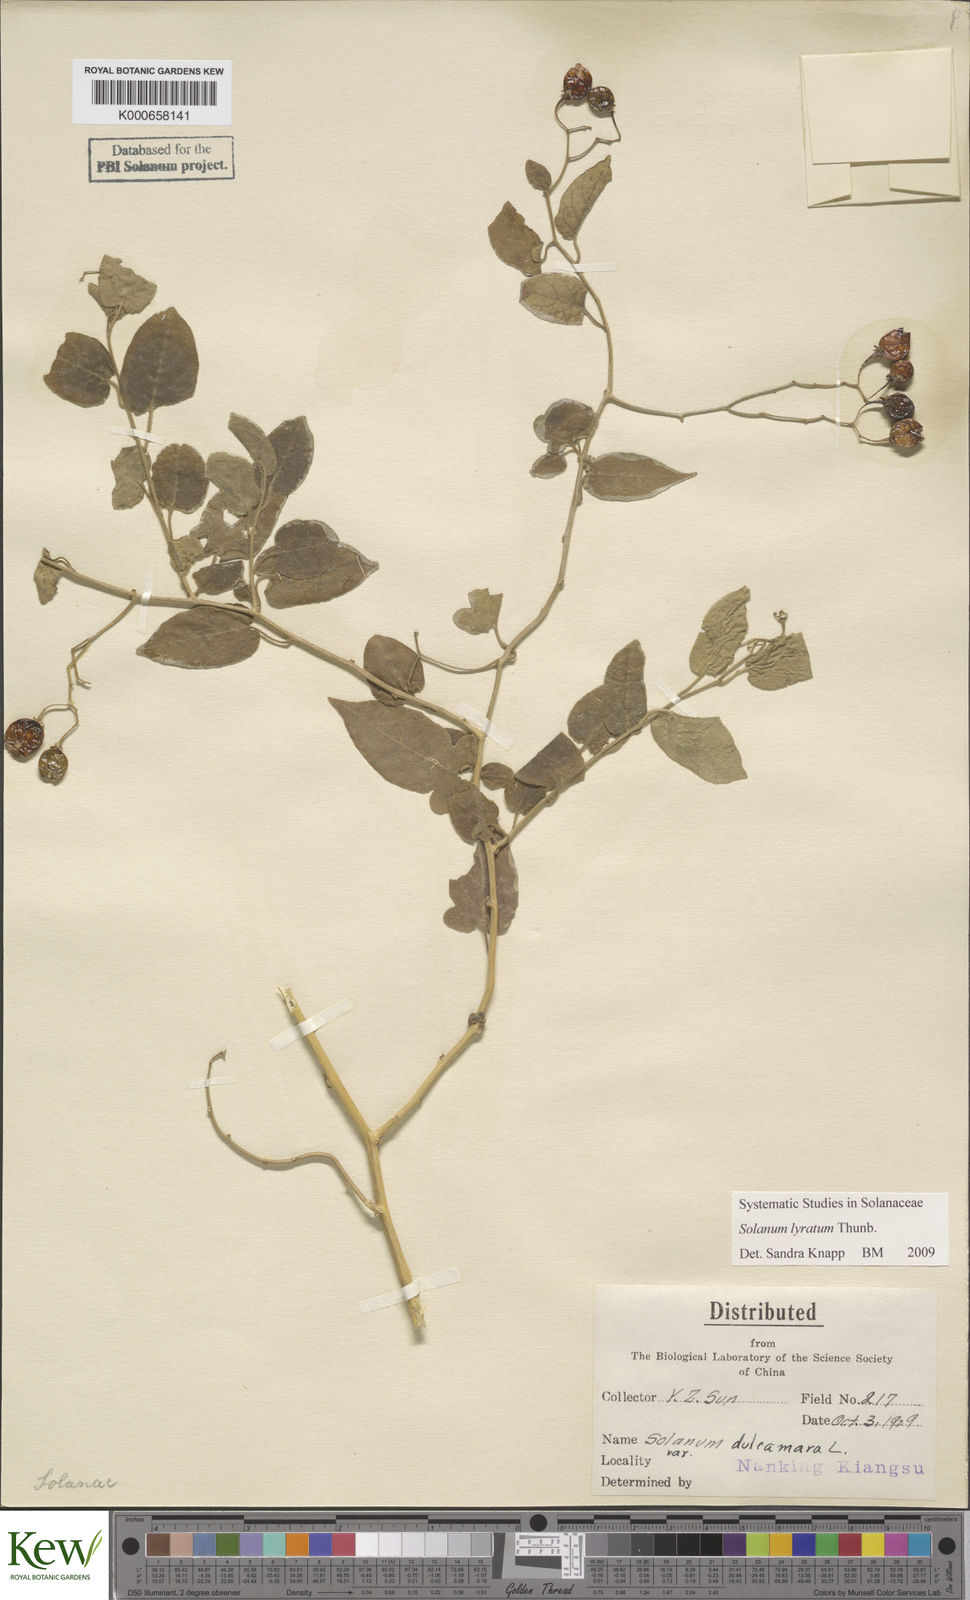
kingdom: Plantae
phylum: Tracheophyta
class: Magnoliopsida
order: Solanales
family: Solanaceae
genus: Solanum
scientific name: Solanum lyratum
